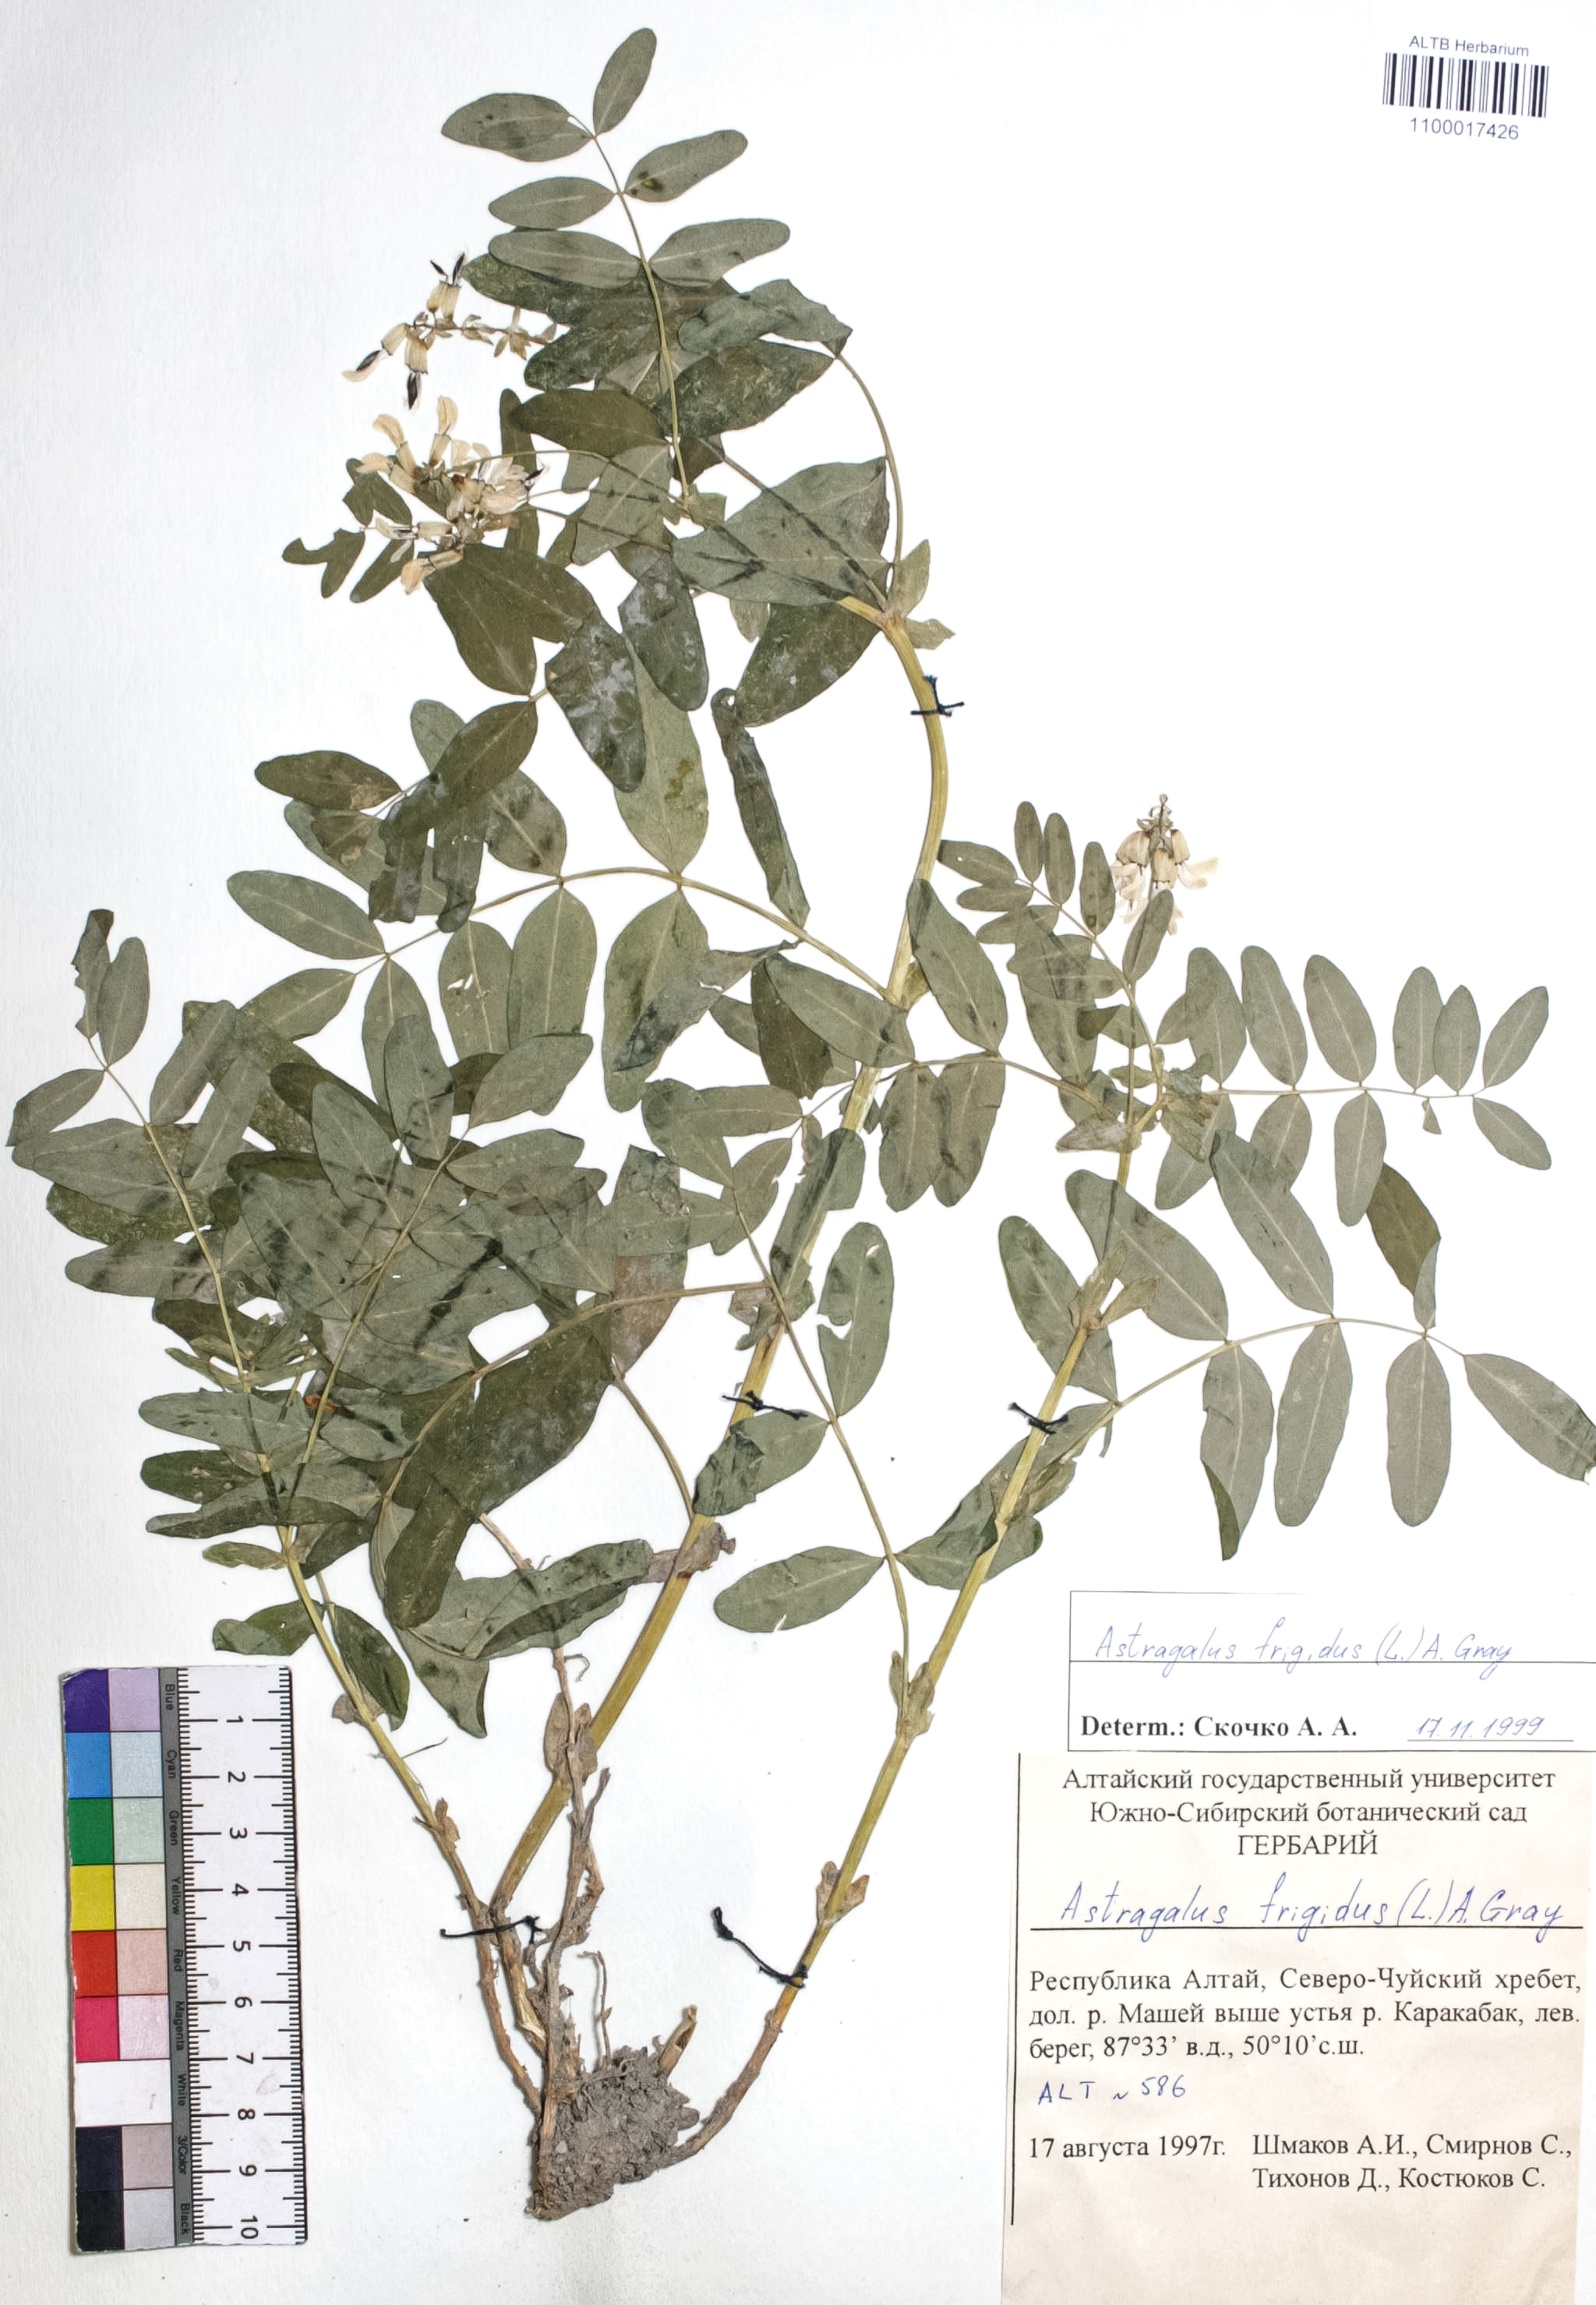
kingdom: Plantae
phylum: Tracheophyta
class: Magnoliopsida
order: Fabales
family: Fabaceae
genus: Astragalus
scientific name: Astragalus frigidus
